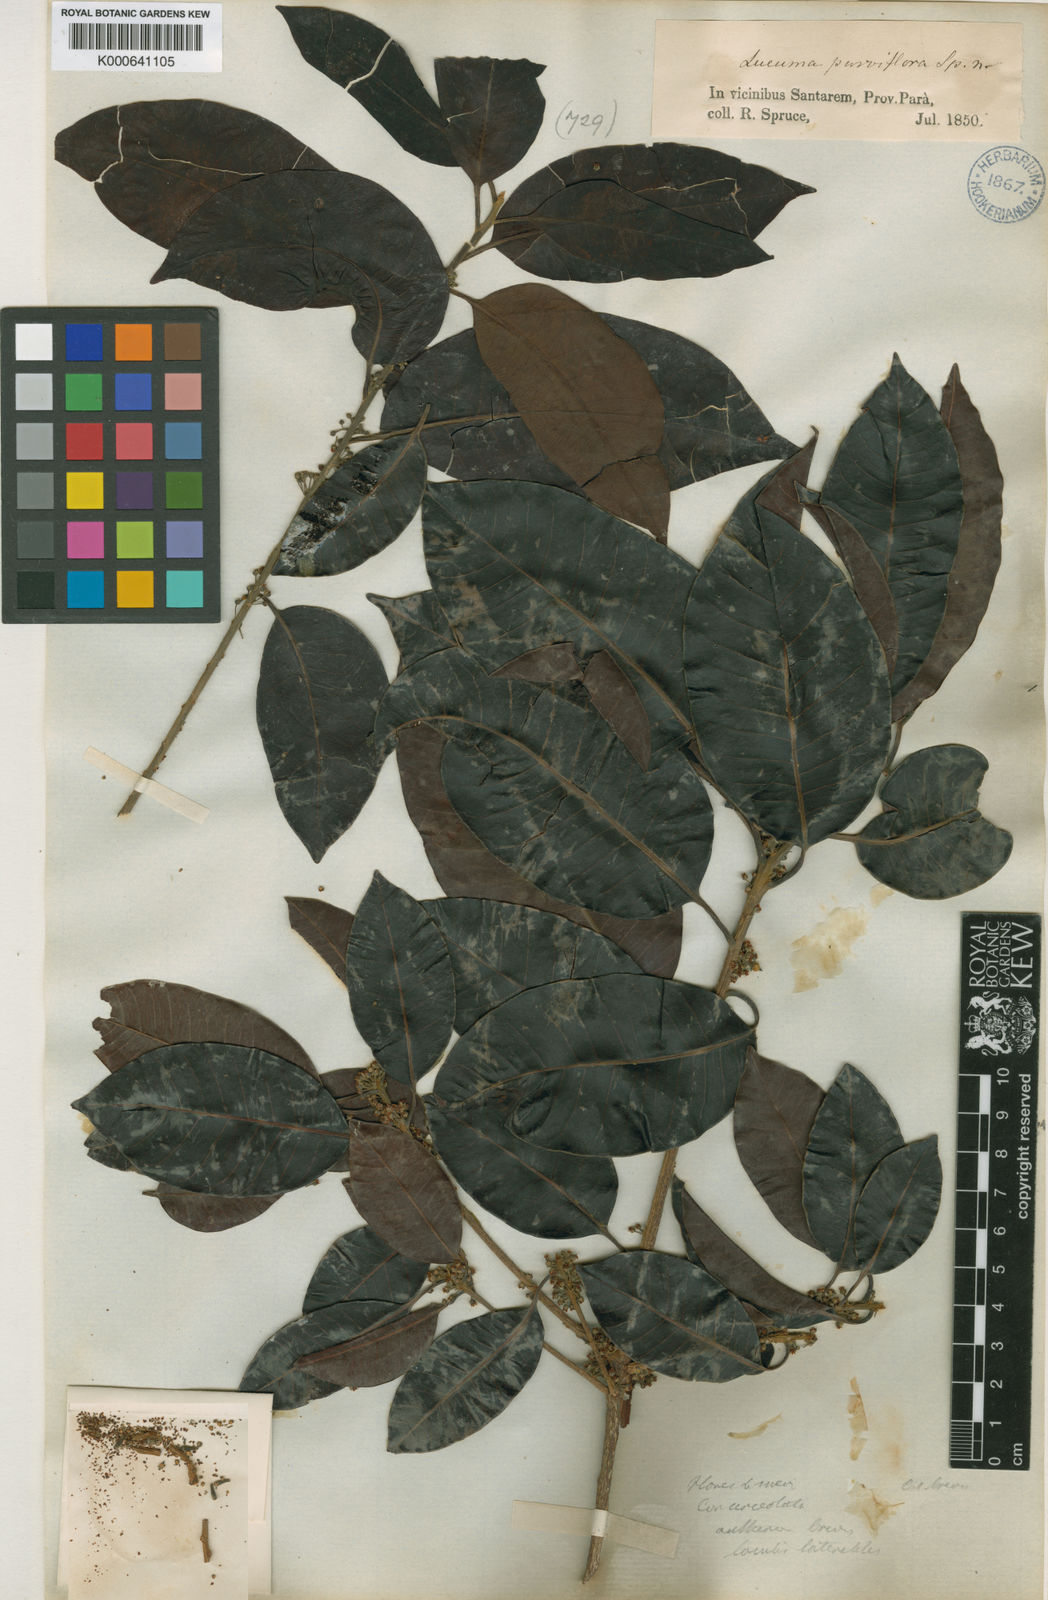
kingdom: Plantae
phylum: Tracheophyta
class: Magnoliopsida
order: Ericales
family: Sapotaceae
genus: Pouteria
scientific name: Pouteria ramiflora
